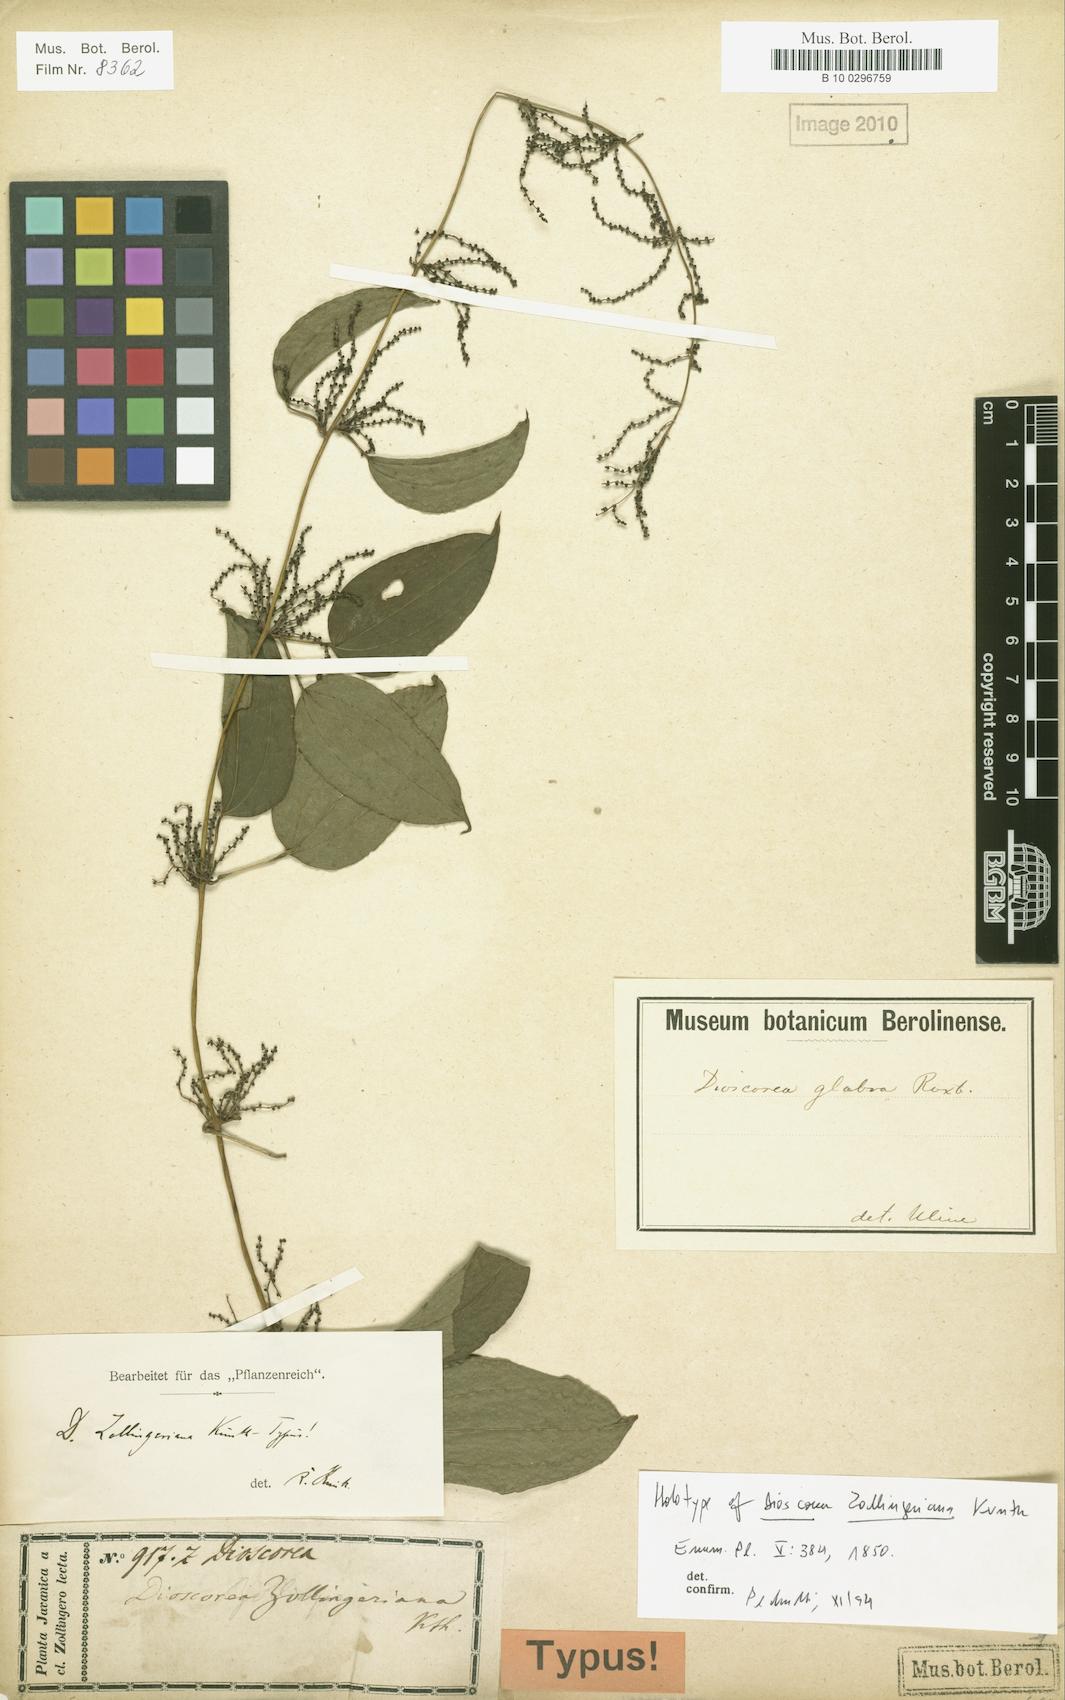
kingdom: Plantae
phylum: Tracheophyta
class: Liliopsida
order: Dioscoreales
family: Dioscoreaceae
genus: Dioscorea
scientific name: Dioscorea pyrifolia
